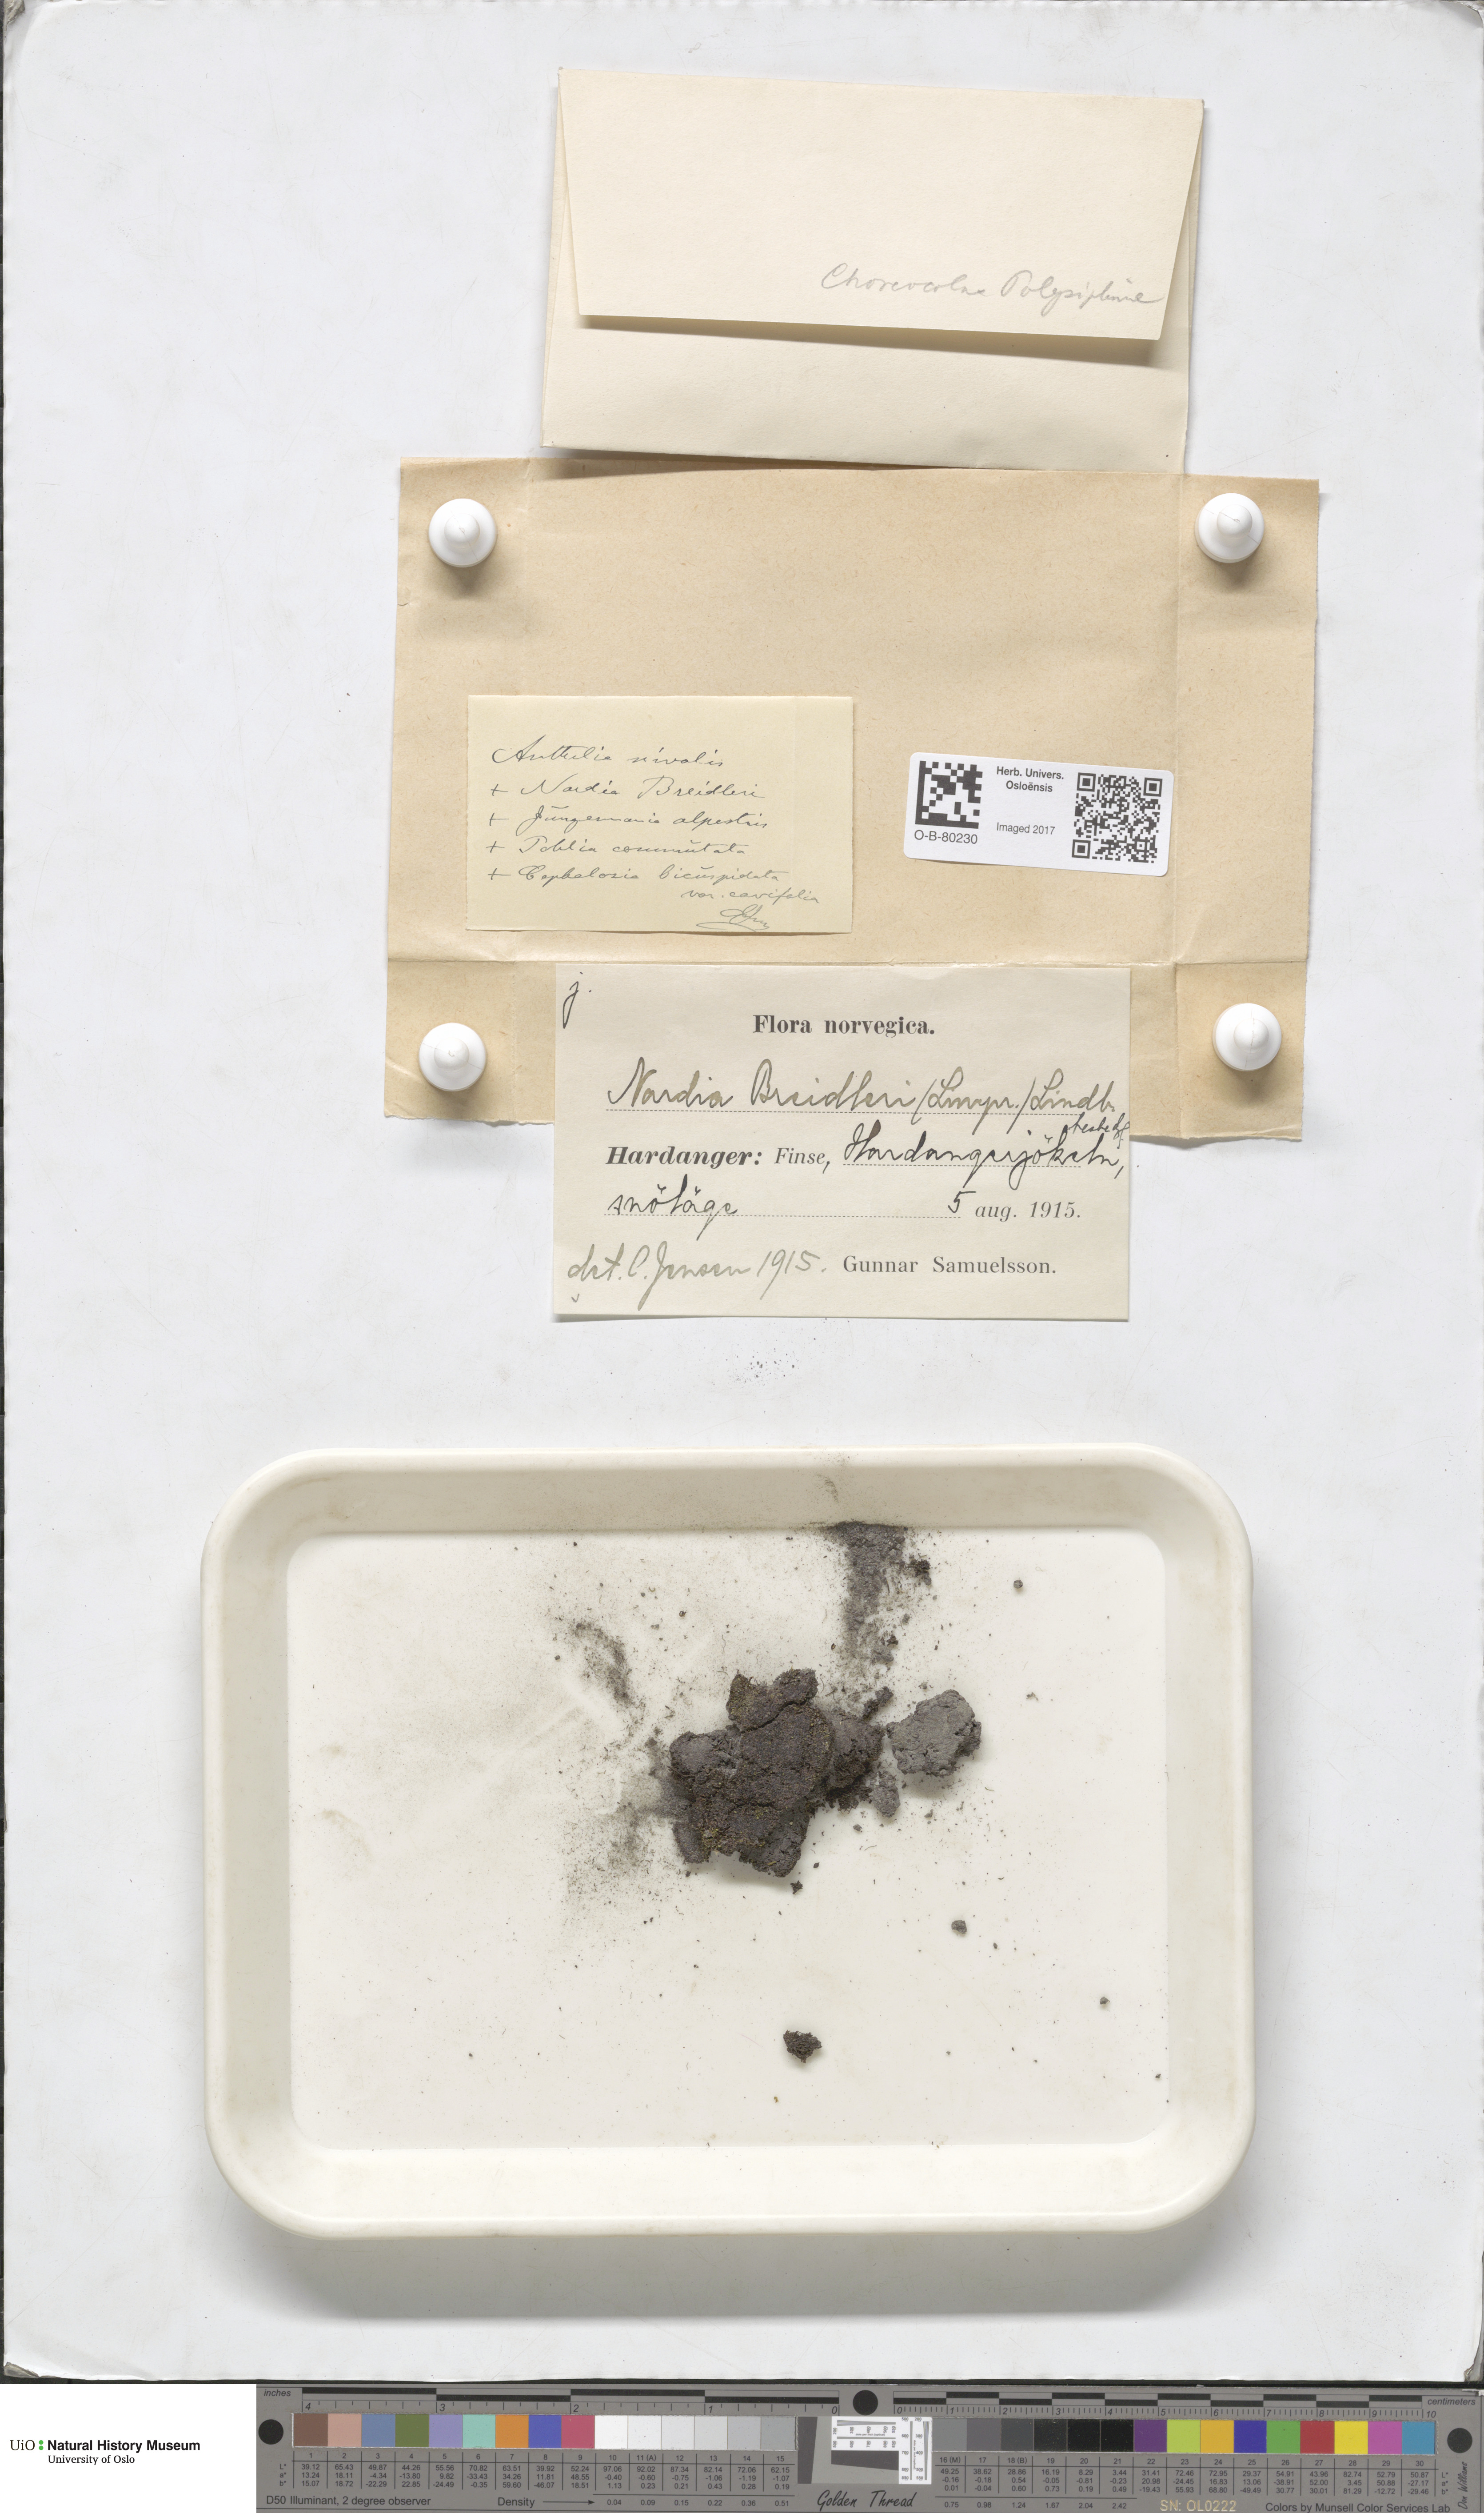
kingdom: Plantae
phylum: Marchantiophyta
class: Jungermanniopsida
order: Jungermanniales
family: Gymnomitriaceae
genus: Nardia
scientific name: Nardia breidleri
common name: Book flapwort
